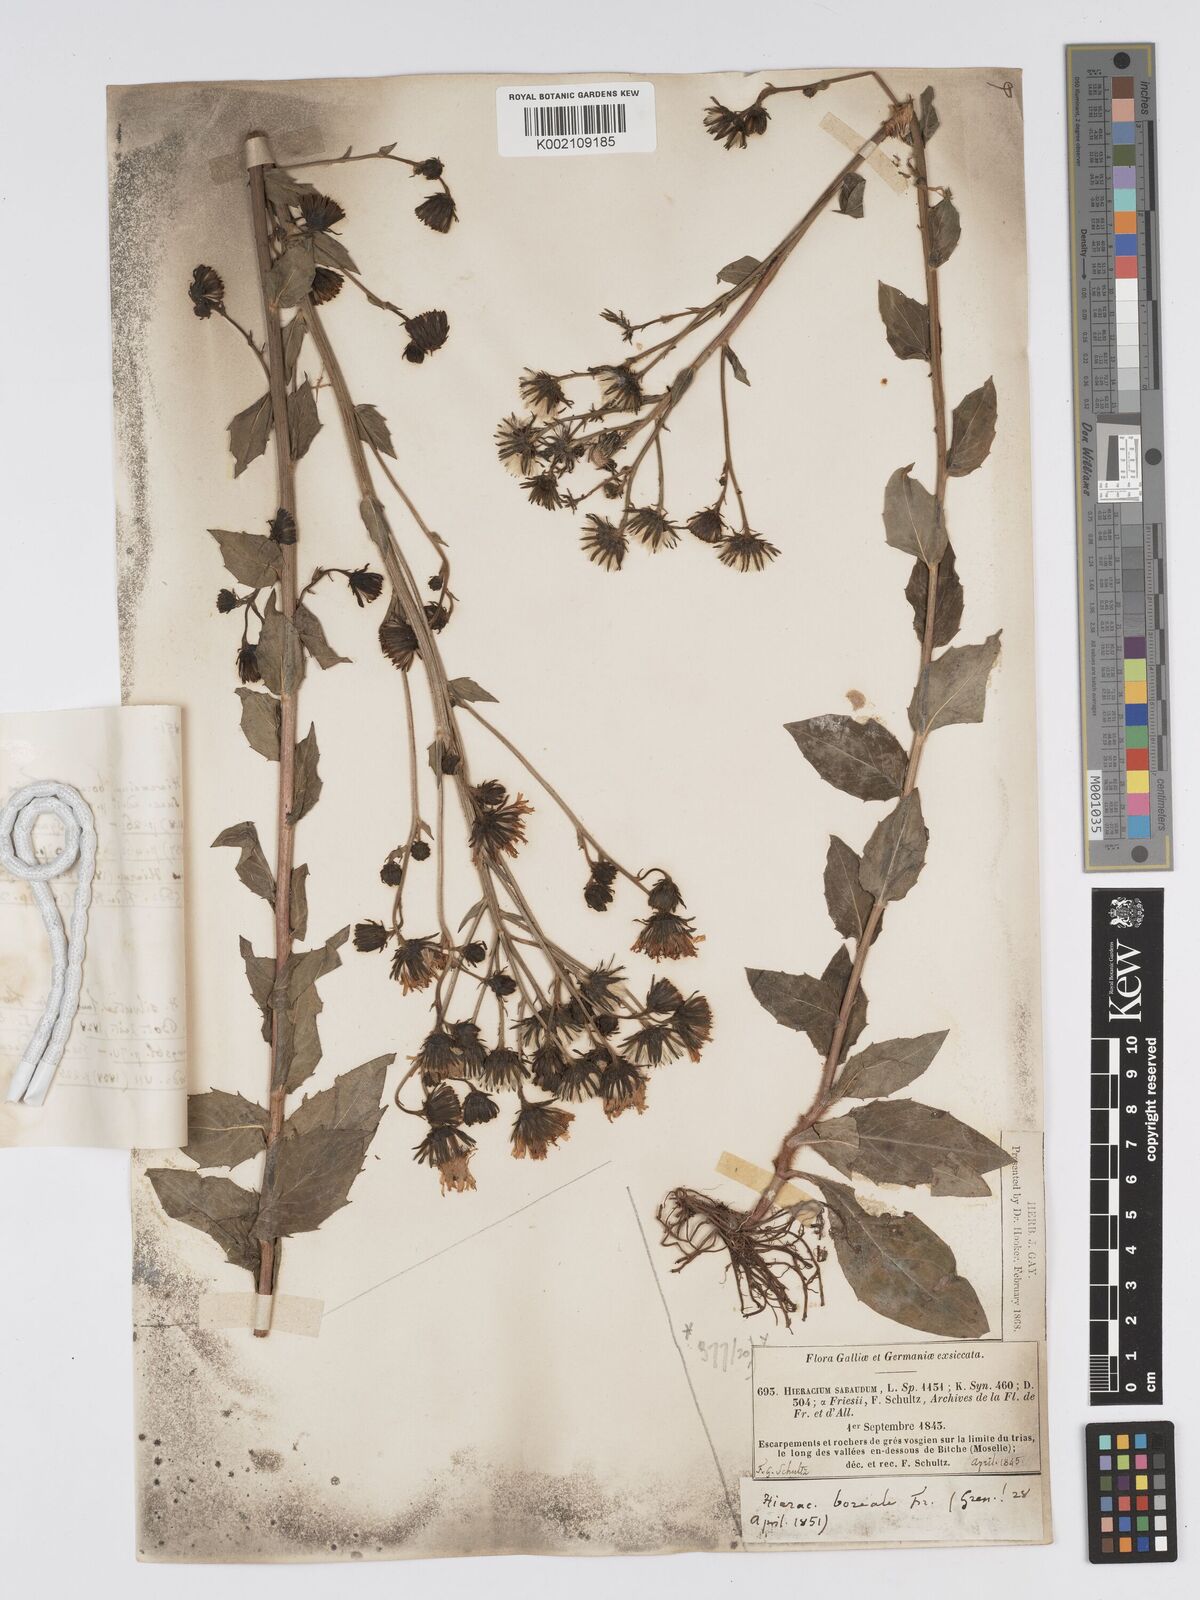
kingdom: Plantae
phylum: Tracheophyta
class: Magnoliopsida
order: Asterales
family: Asteraceae
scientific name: Asteraceae
